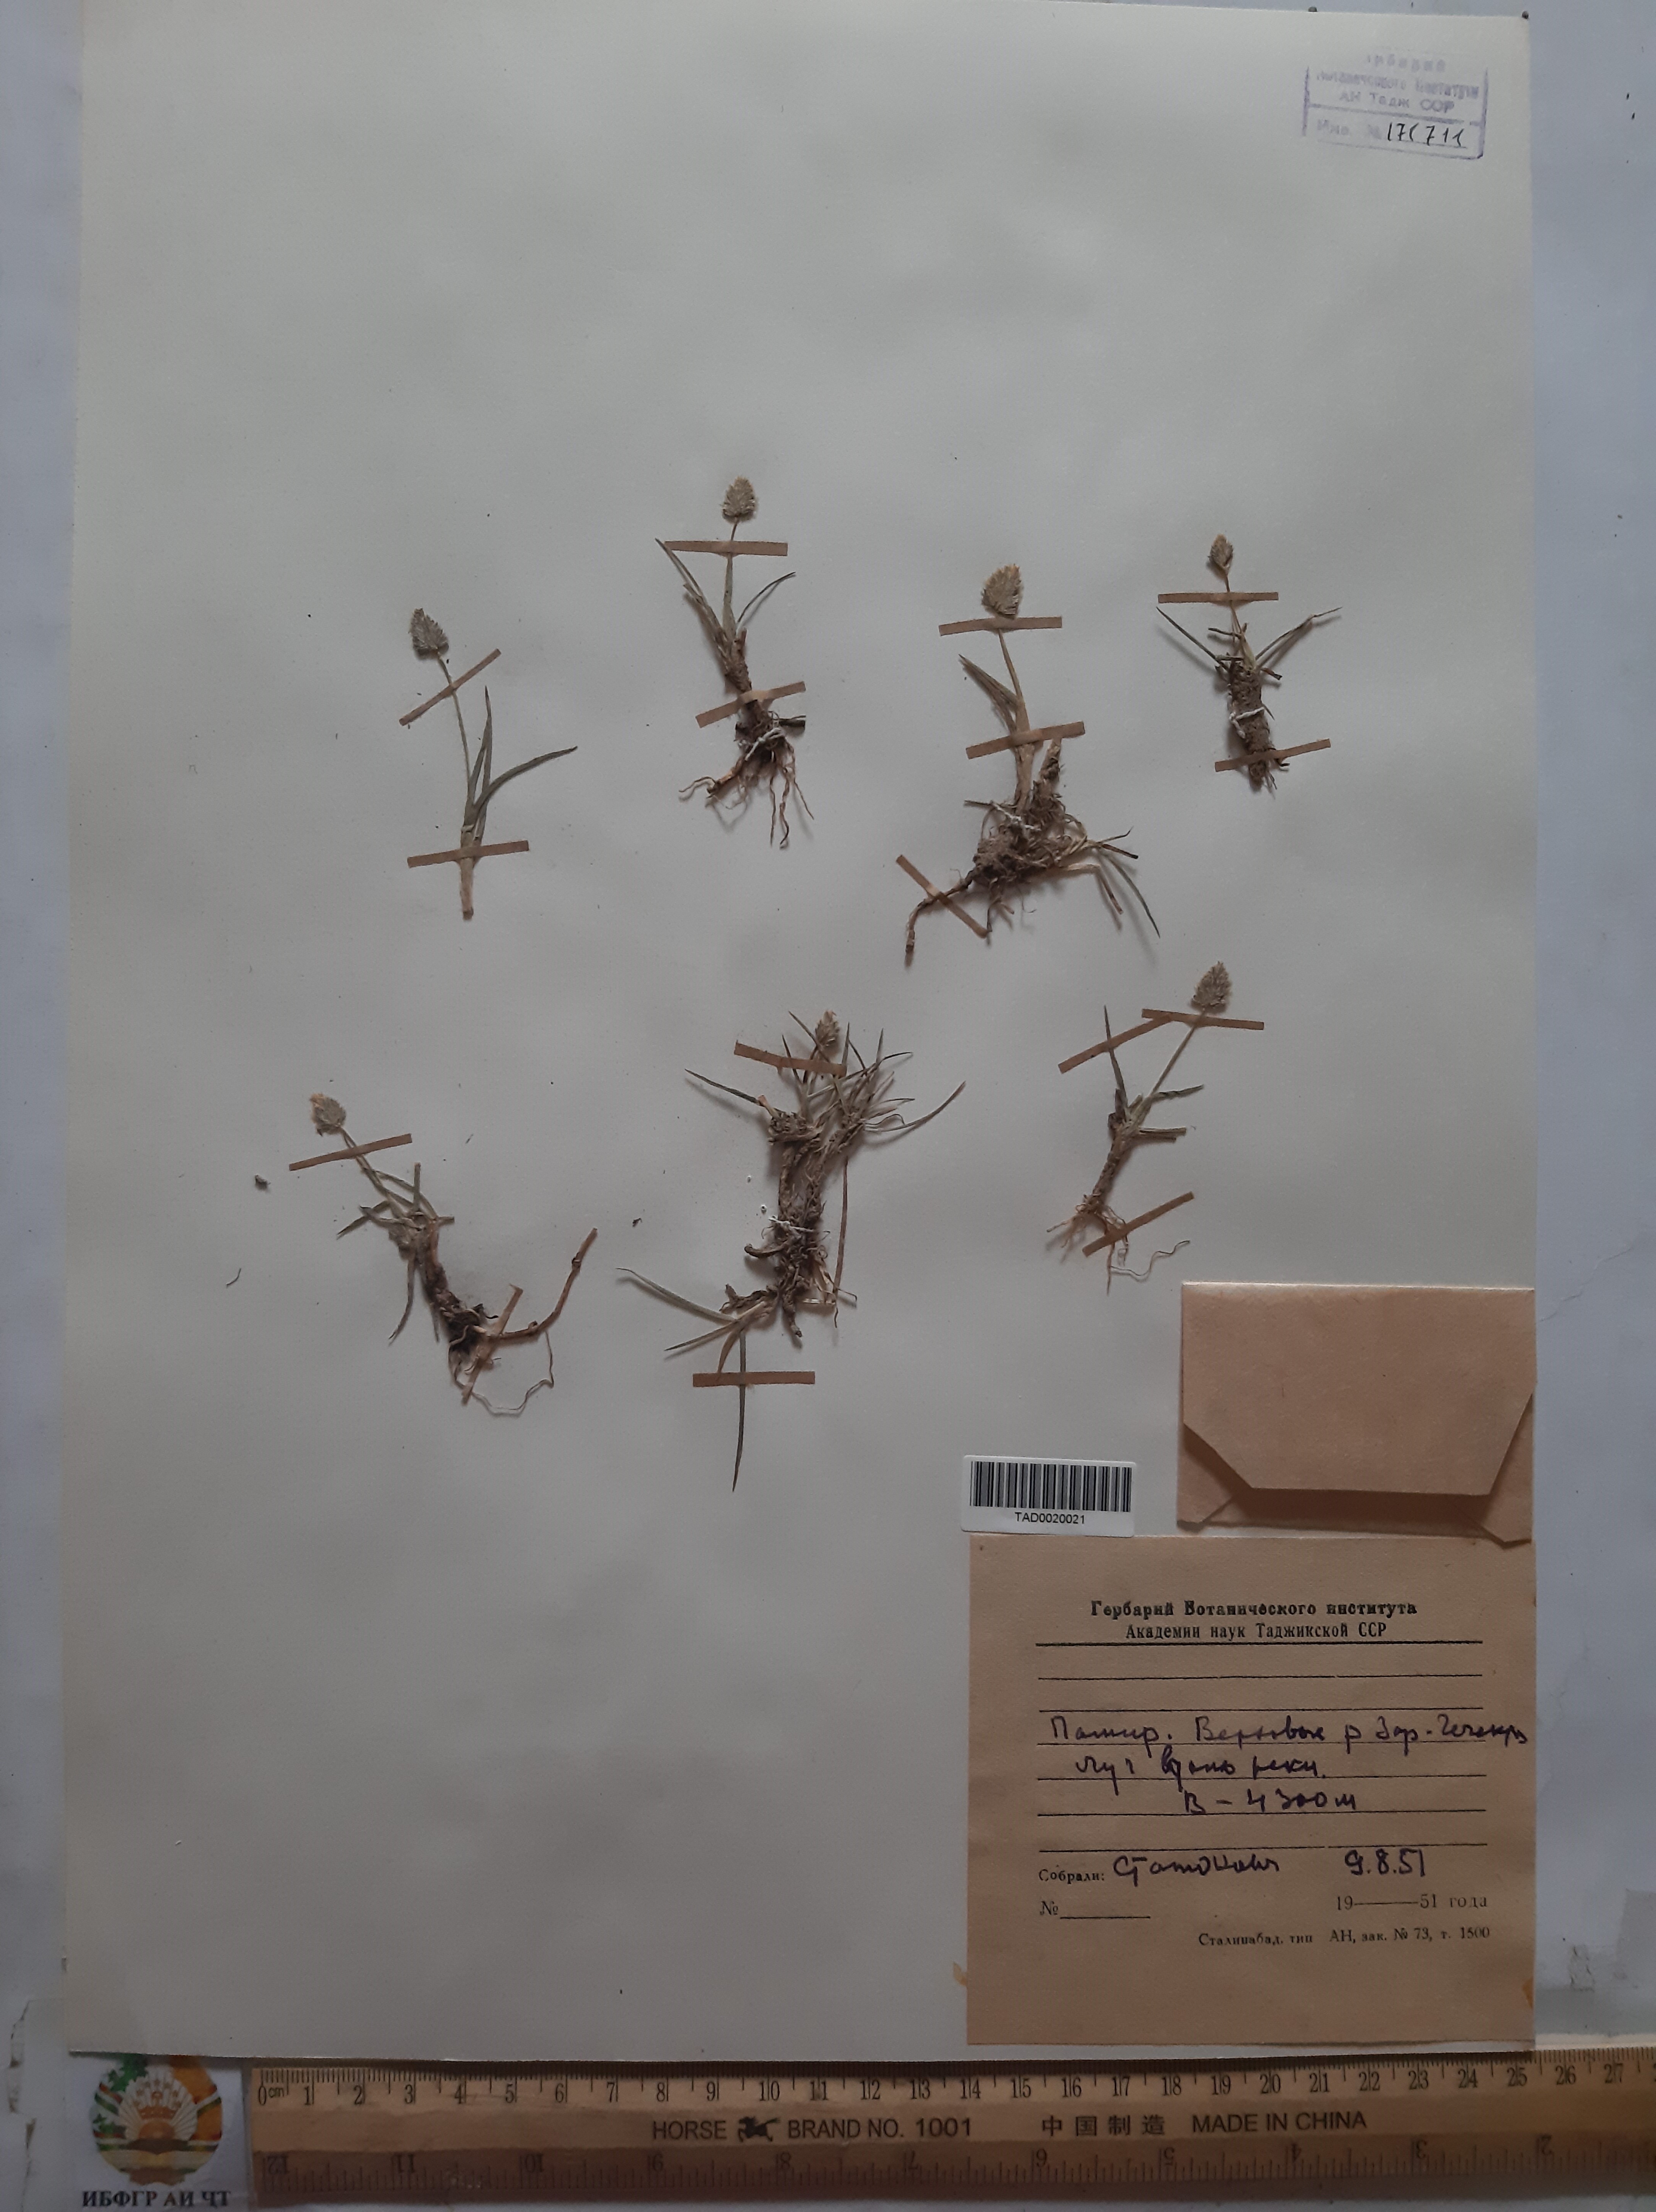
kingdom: Plantae
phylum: Tracheophyta
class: Liliopsida
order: Poales
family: Poaceae
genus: Alopecurus
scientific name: Alopecurus mucronatus
